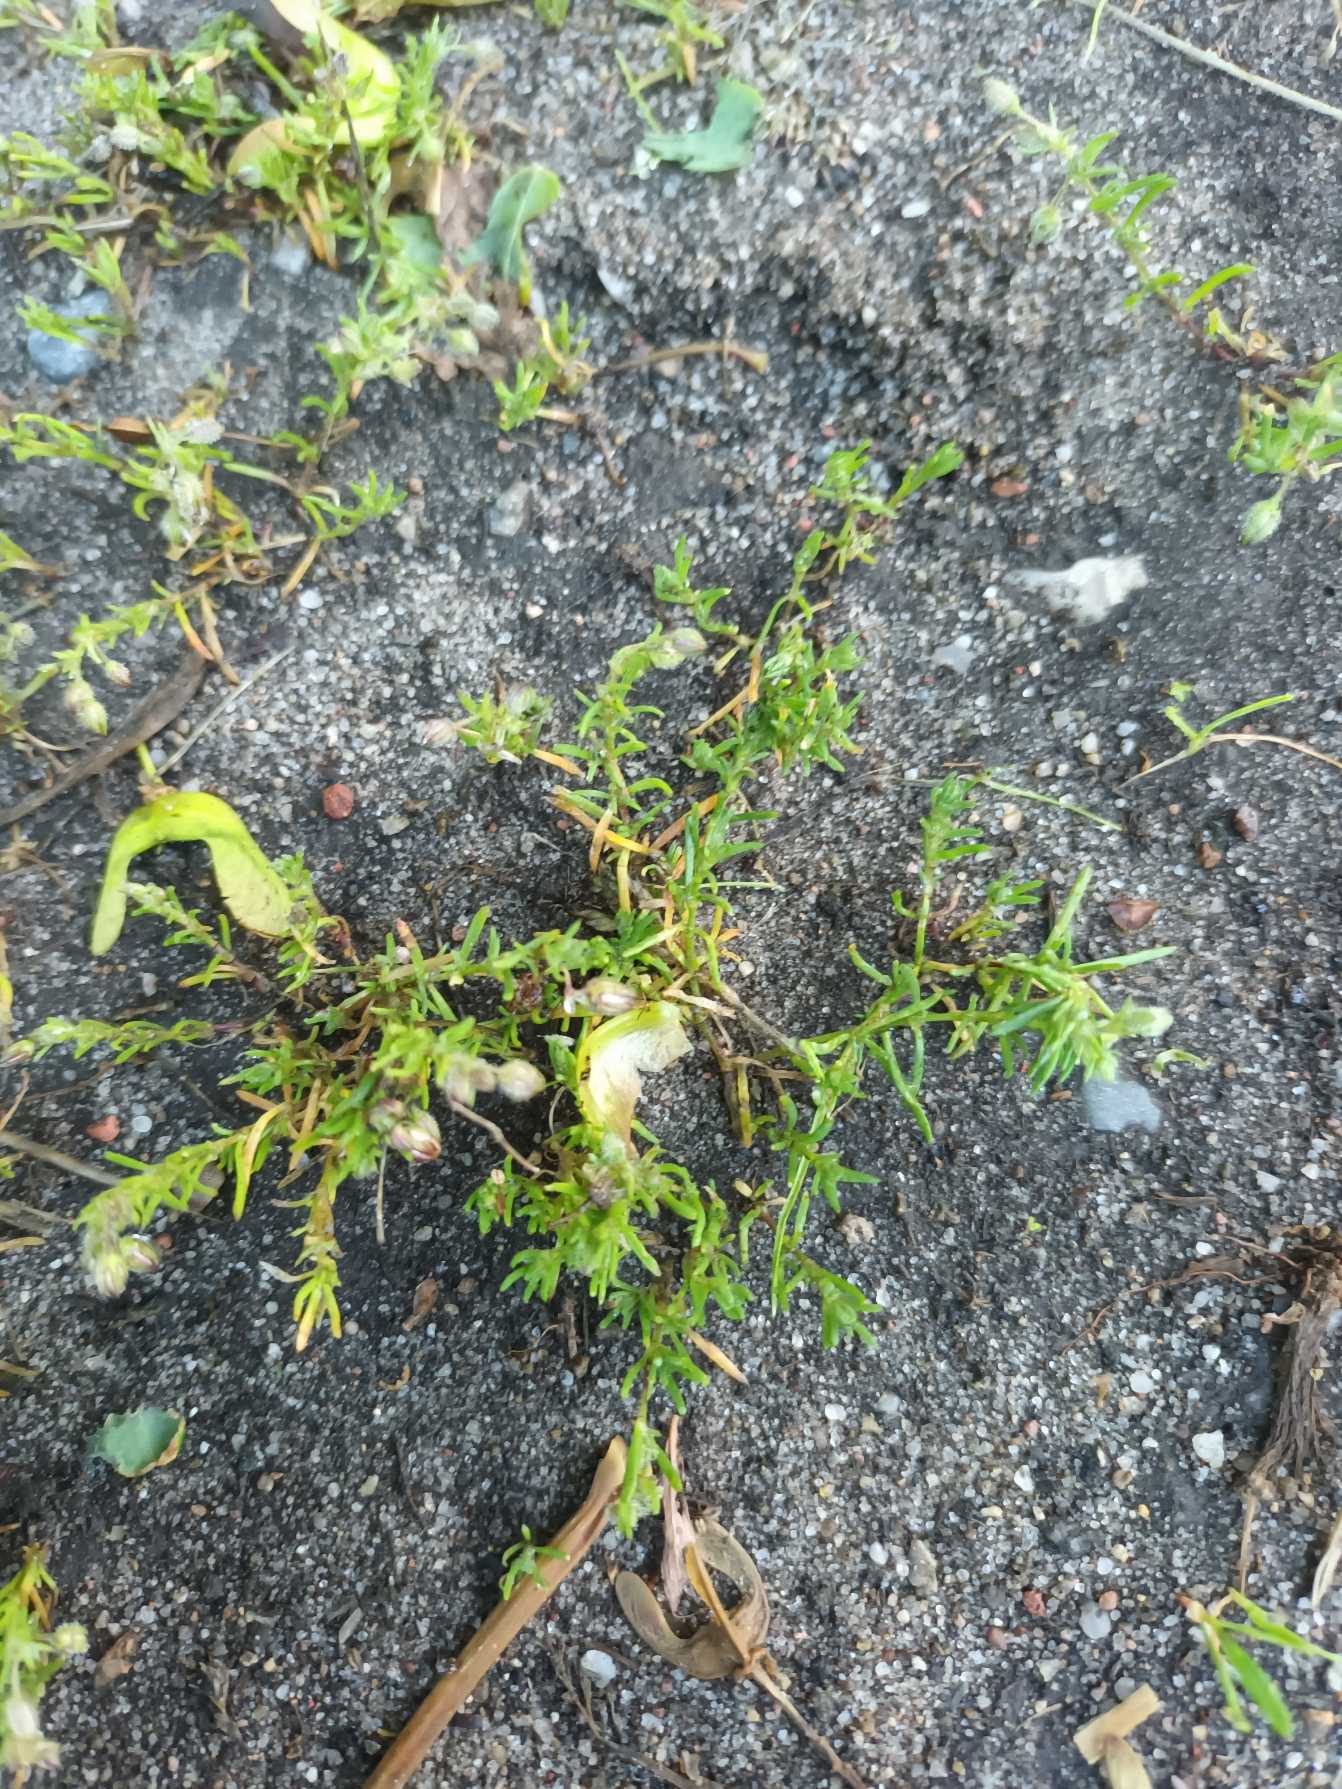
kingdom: Plantae
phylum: Tracheophyta
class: Magnoliopsida
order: Caryophyllales
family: Caryophyllaceae
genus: Spergularia
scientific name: Spergularia rubra
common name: Mark-hindeknæ
